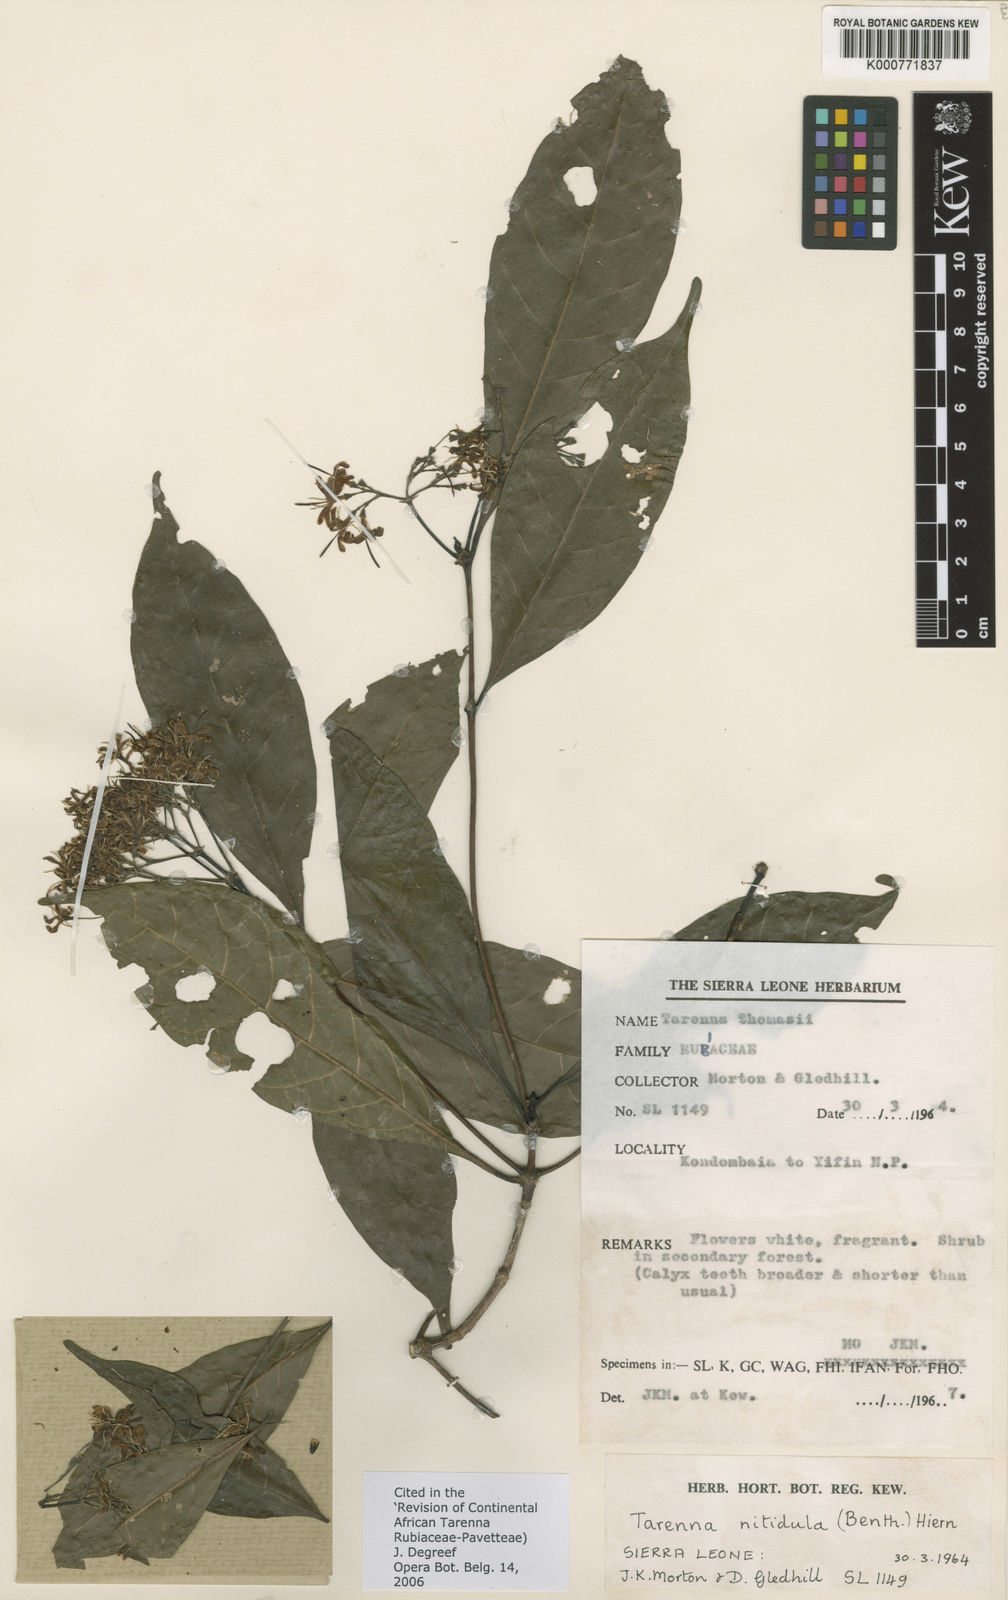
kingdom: Plantae
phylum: Tracheophyta
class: Magnoliopsida
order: Gentianales
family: Rubiaceae
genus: Tarenna
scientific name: Tarenna nitidula
